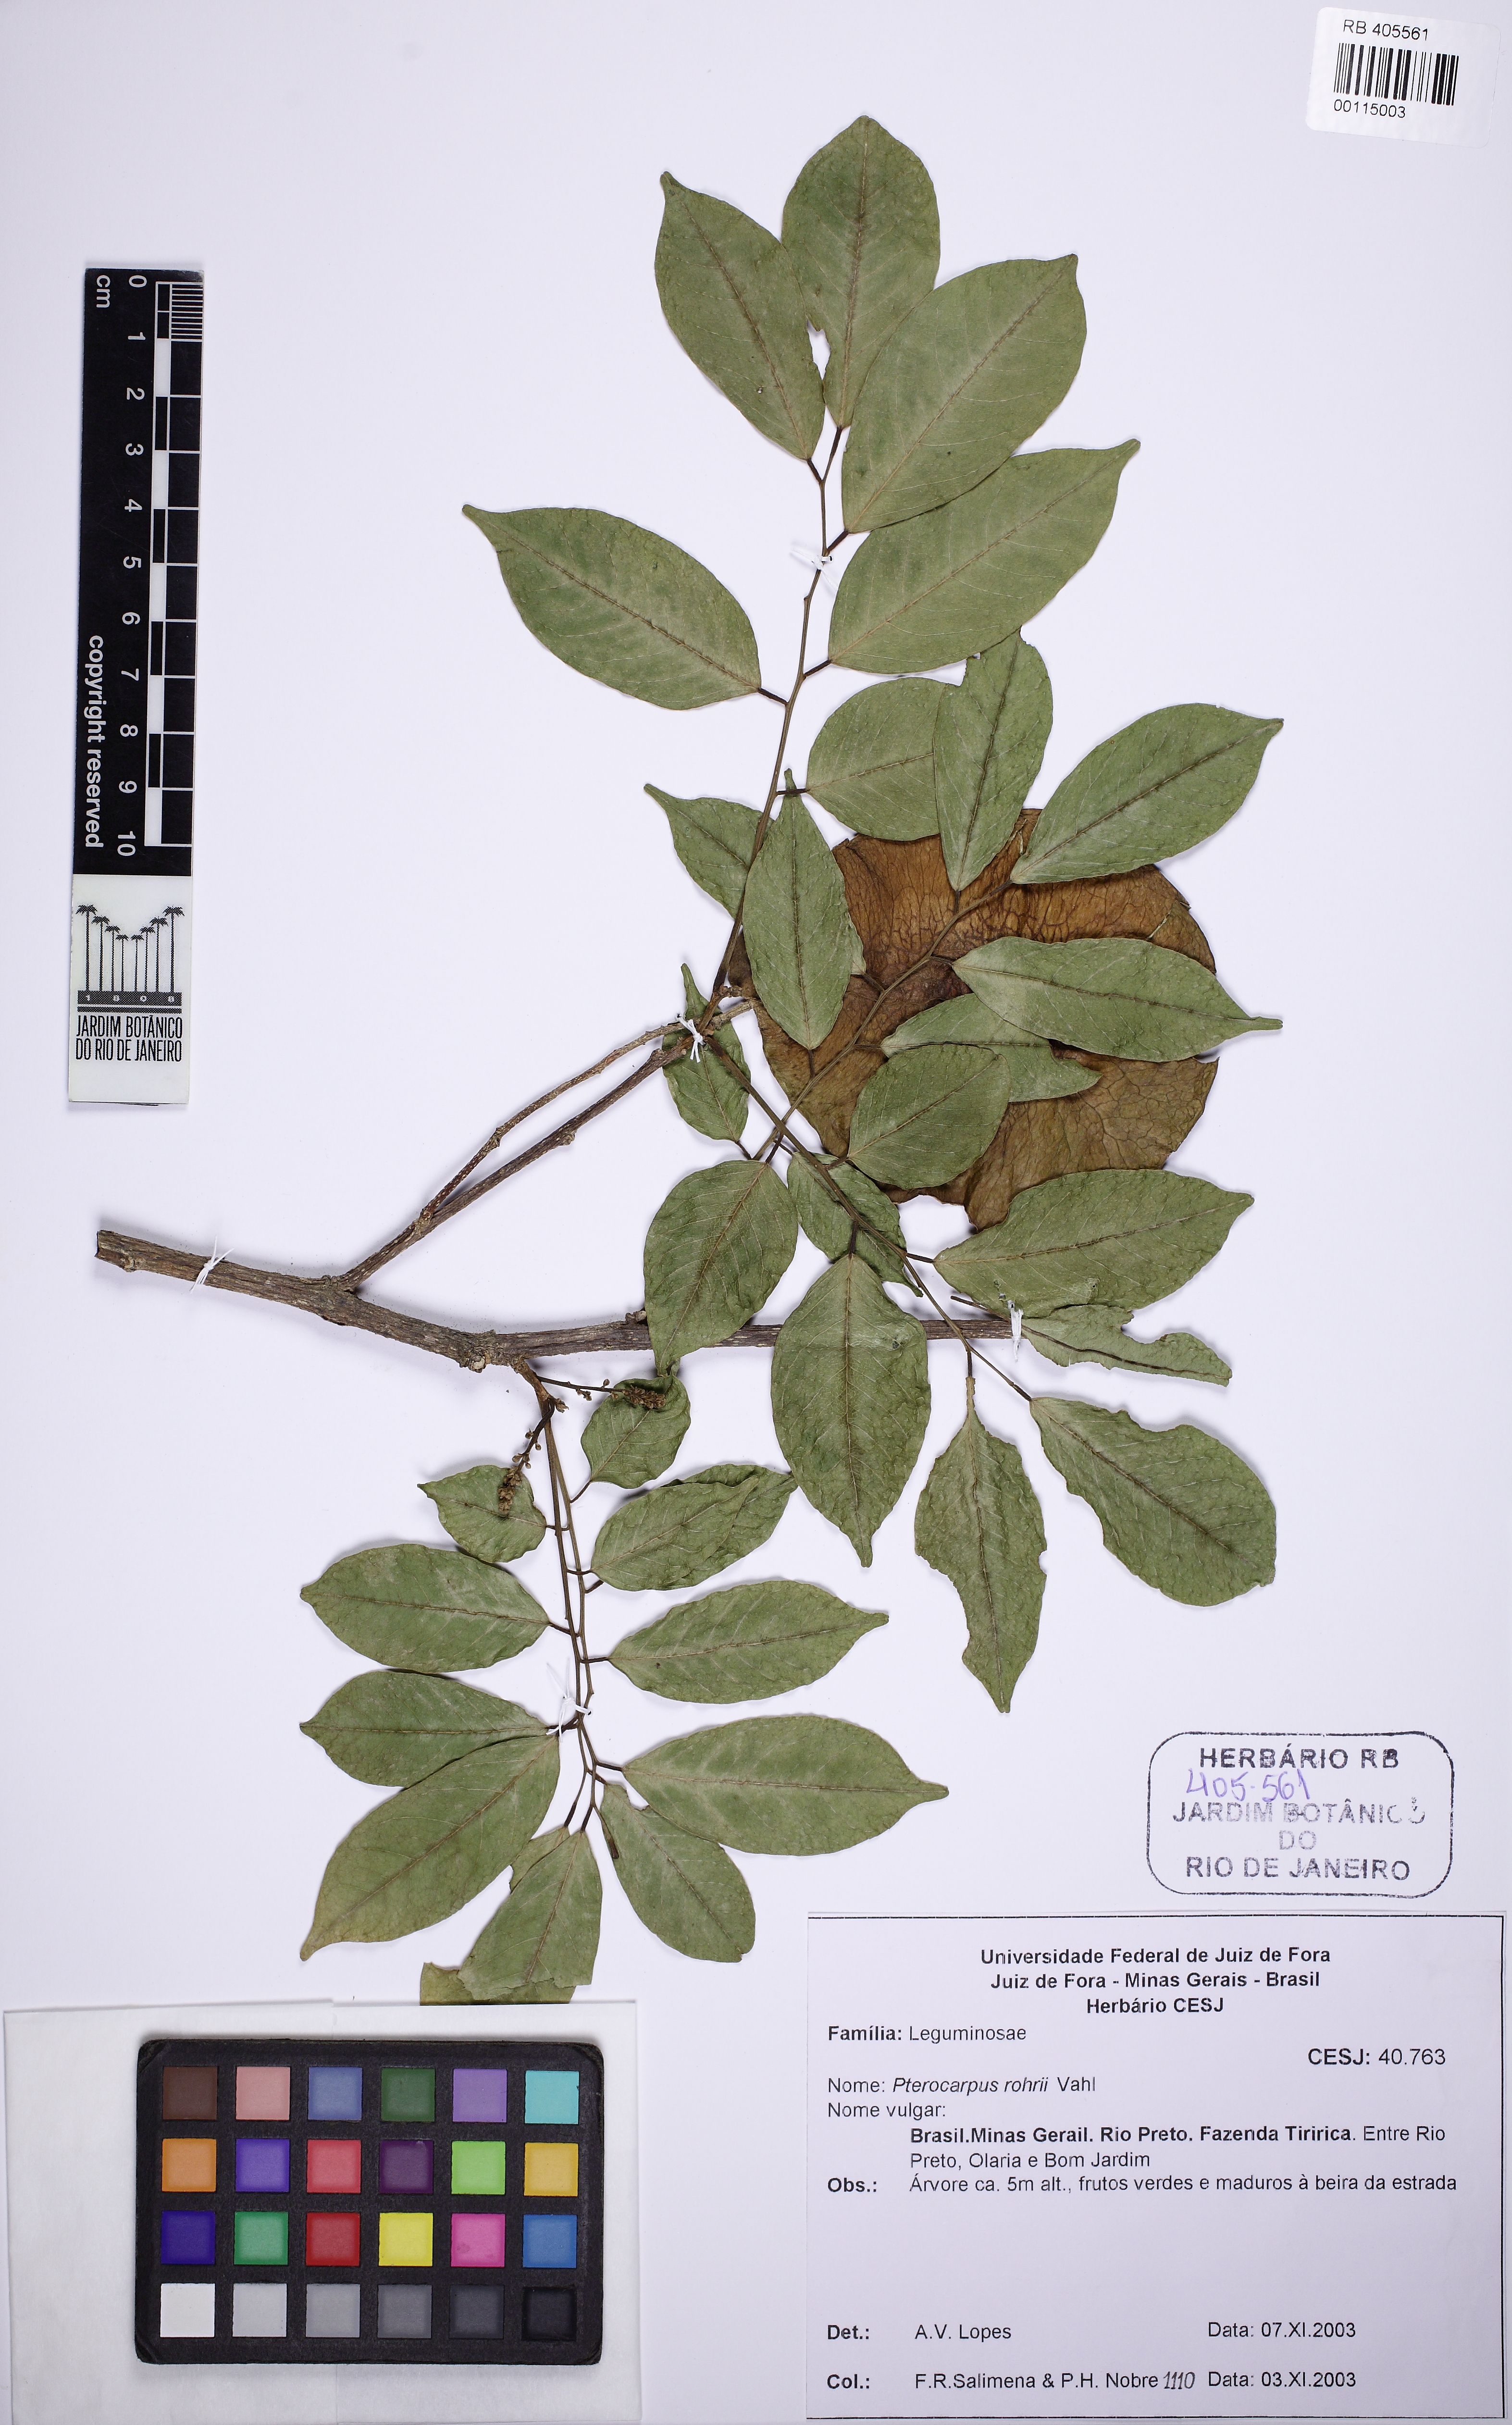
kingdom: Plantae
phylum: Tracheophyta
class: Magnoliopsida
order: Fabales
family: Fabaceae
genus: Pterocarpus
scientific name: Pterocarpus rohrii
